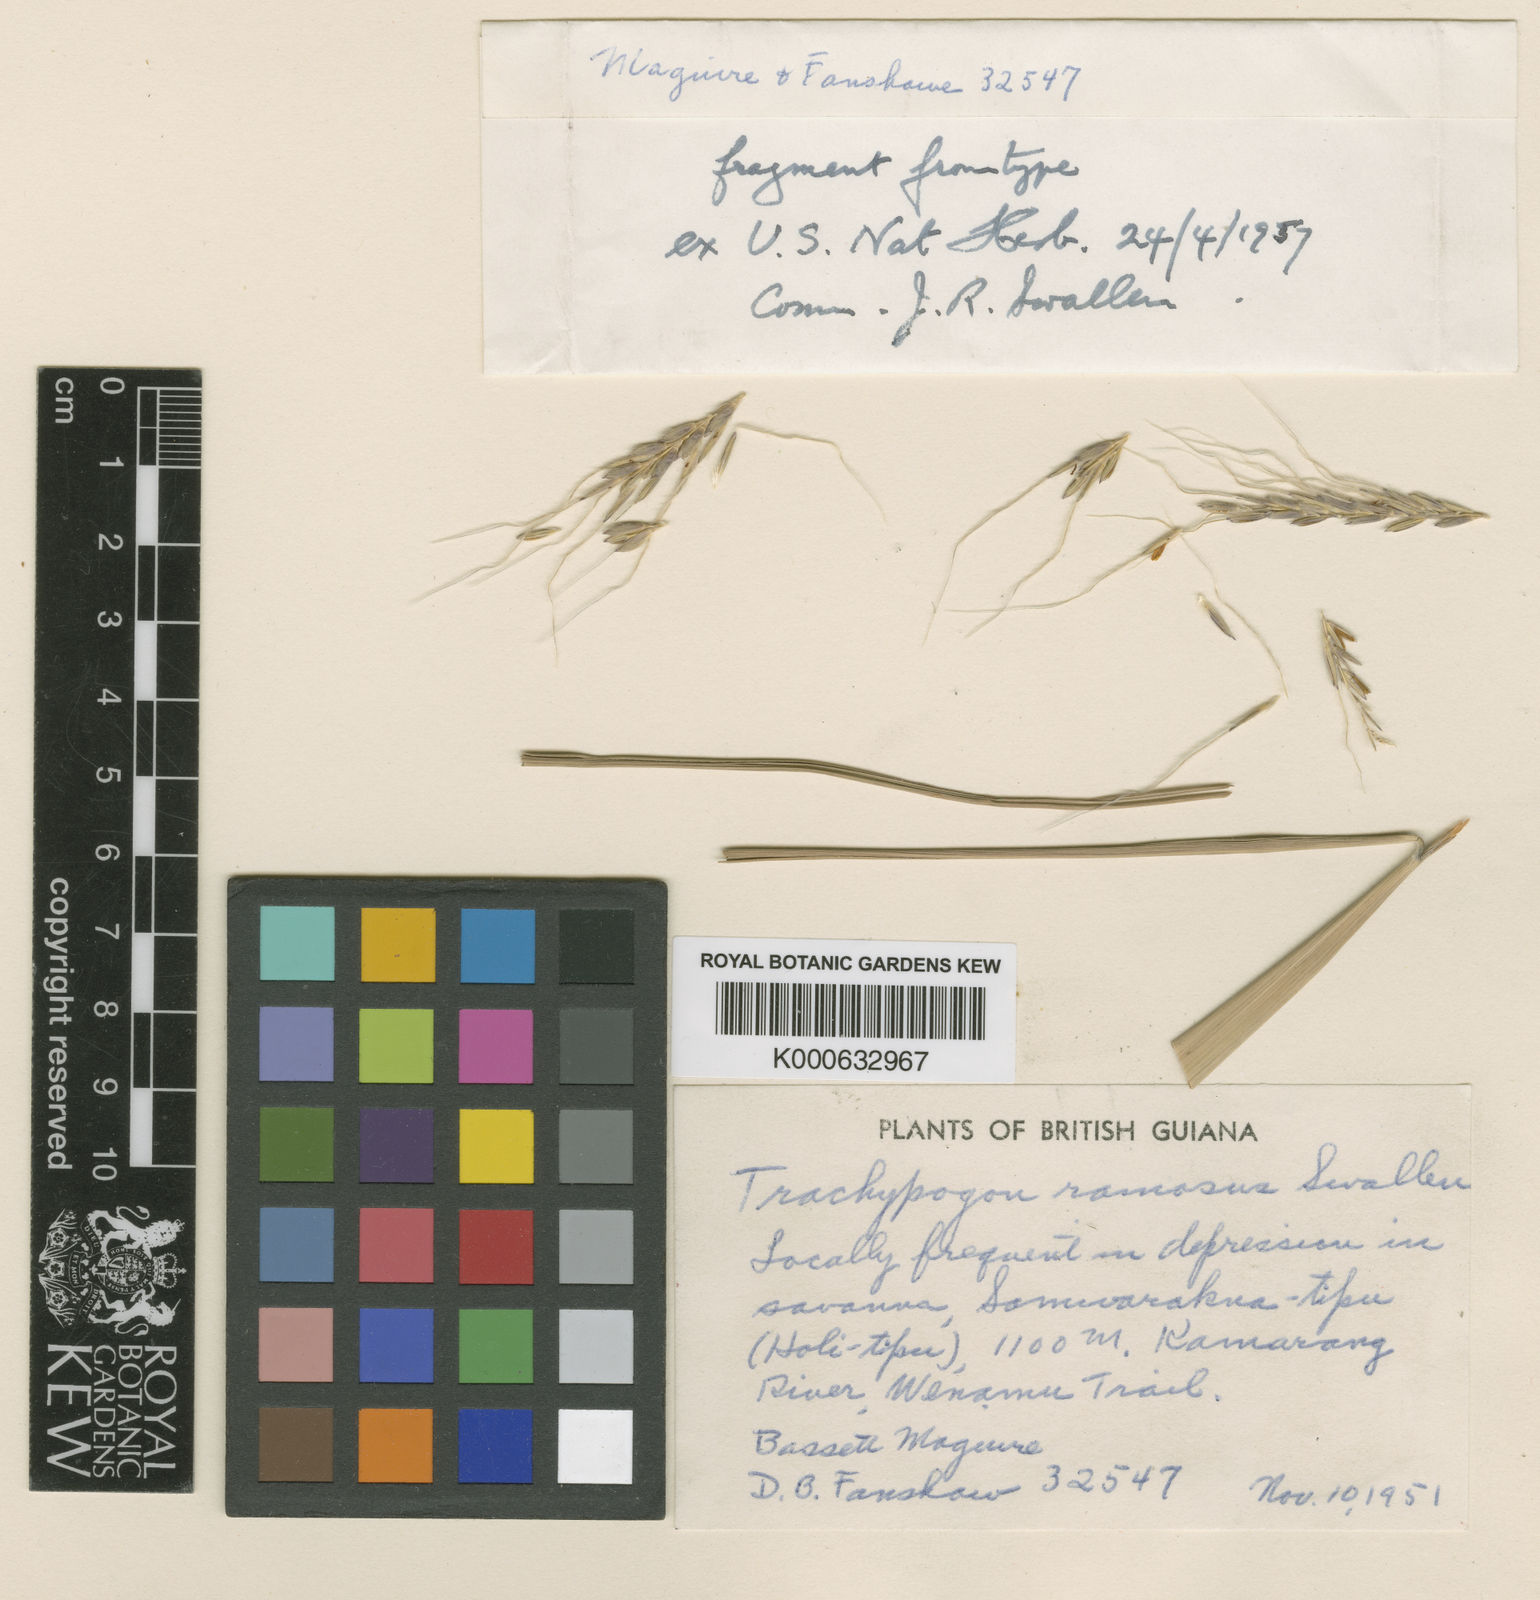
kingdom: Plantae
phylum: Tracheophyta
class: Liliopsida
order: Poales
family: Poaceae
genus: Trachypogon
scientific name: Trachypogon spicatus
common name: Crinkle-awn
